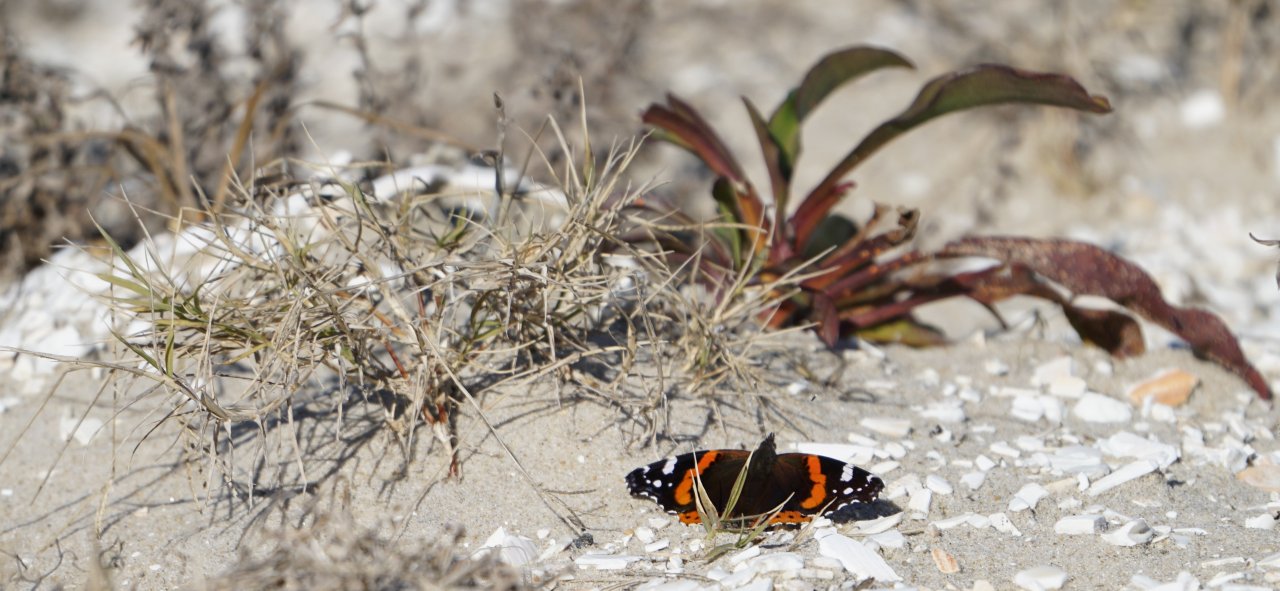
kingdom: Animalia
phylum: Arthropoda
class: Insecta
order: Lepidoptera
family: Nymphalidae
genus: Vanessa
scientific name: Vanessa atalanta
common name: Red Admiral
